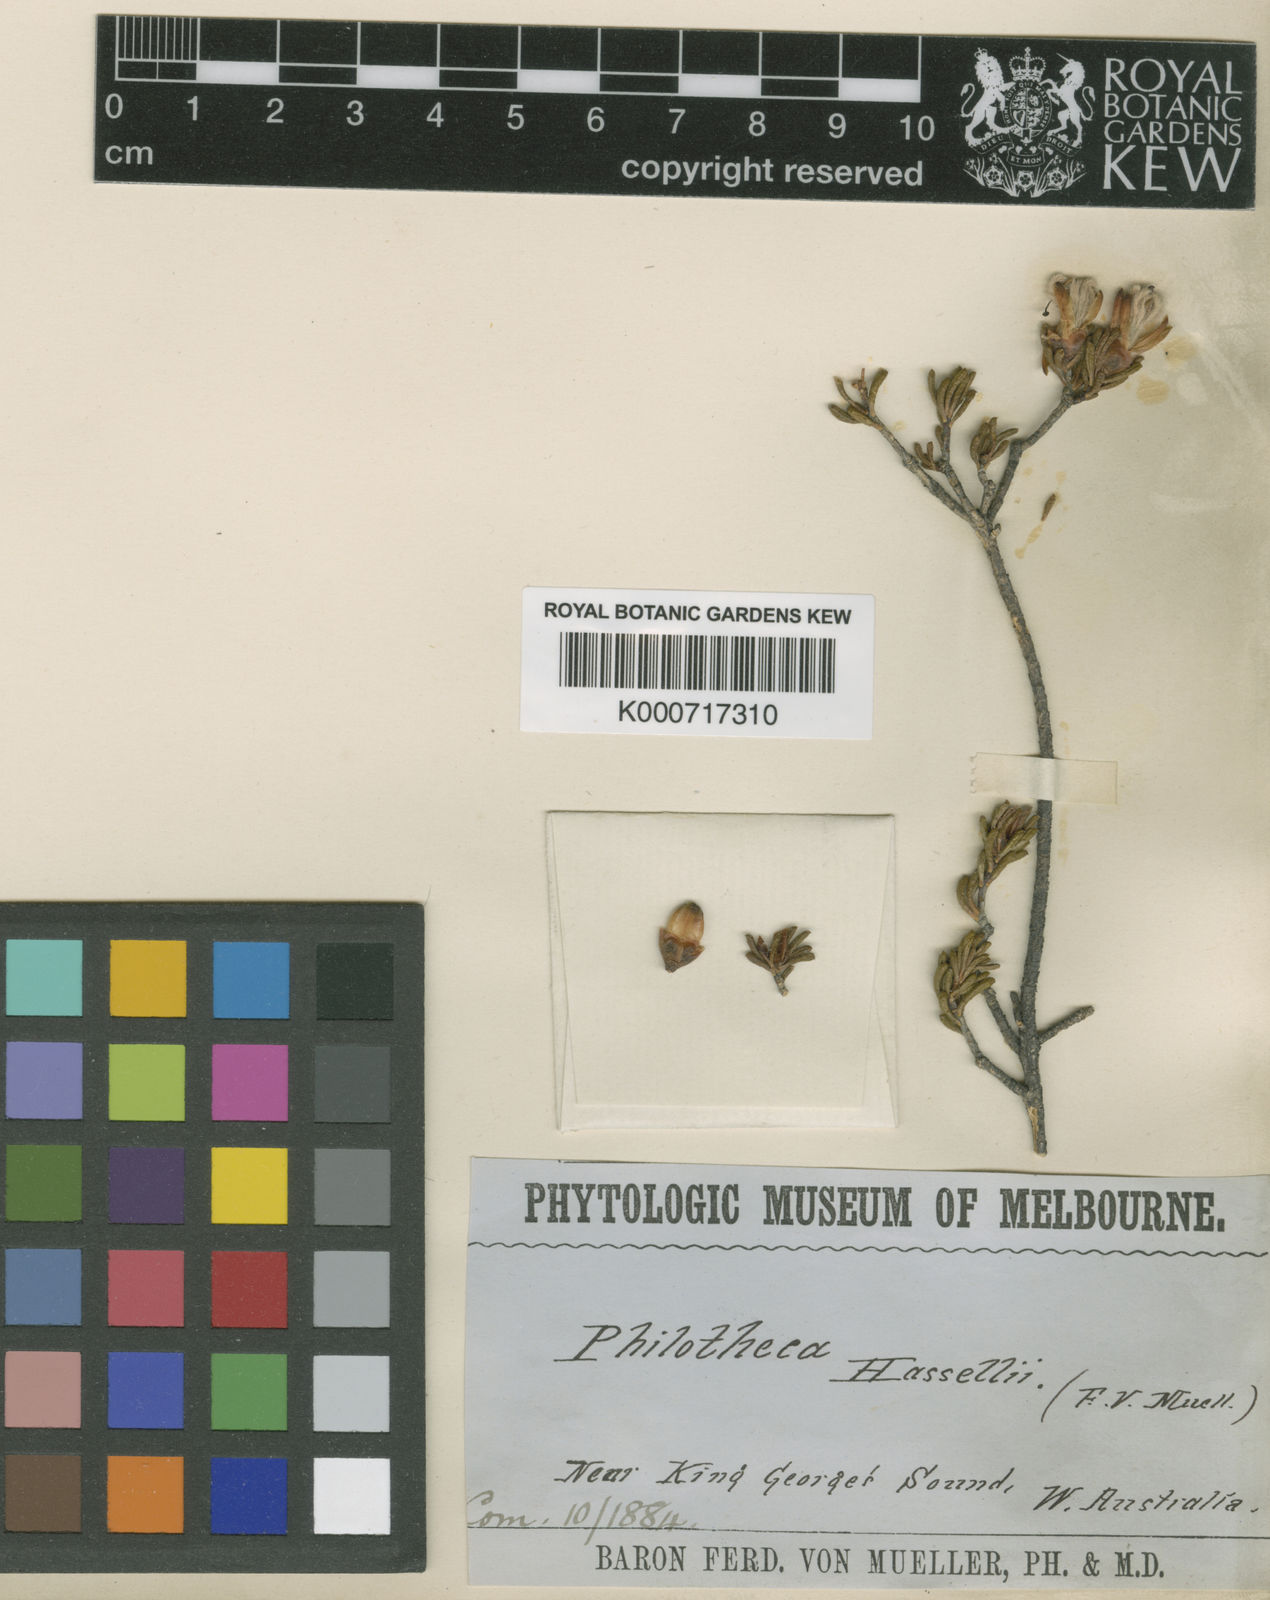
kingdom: Plantae
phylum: Tracheophyta
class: Magnoliopsida
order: Sapindales
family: Rutaceae
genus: Drummondita
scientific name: Drummondita hassellii
